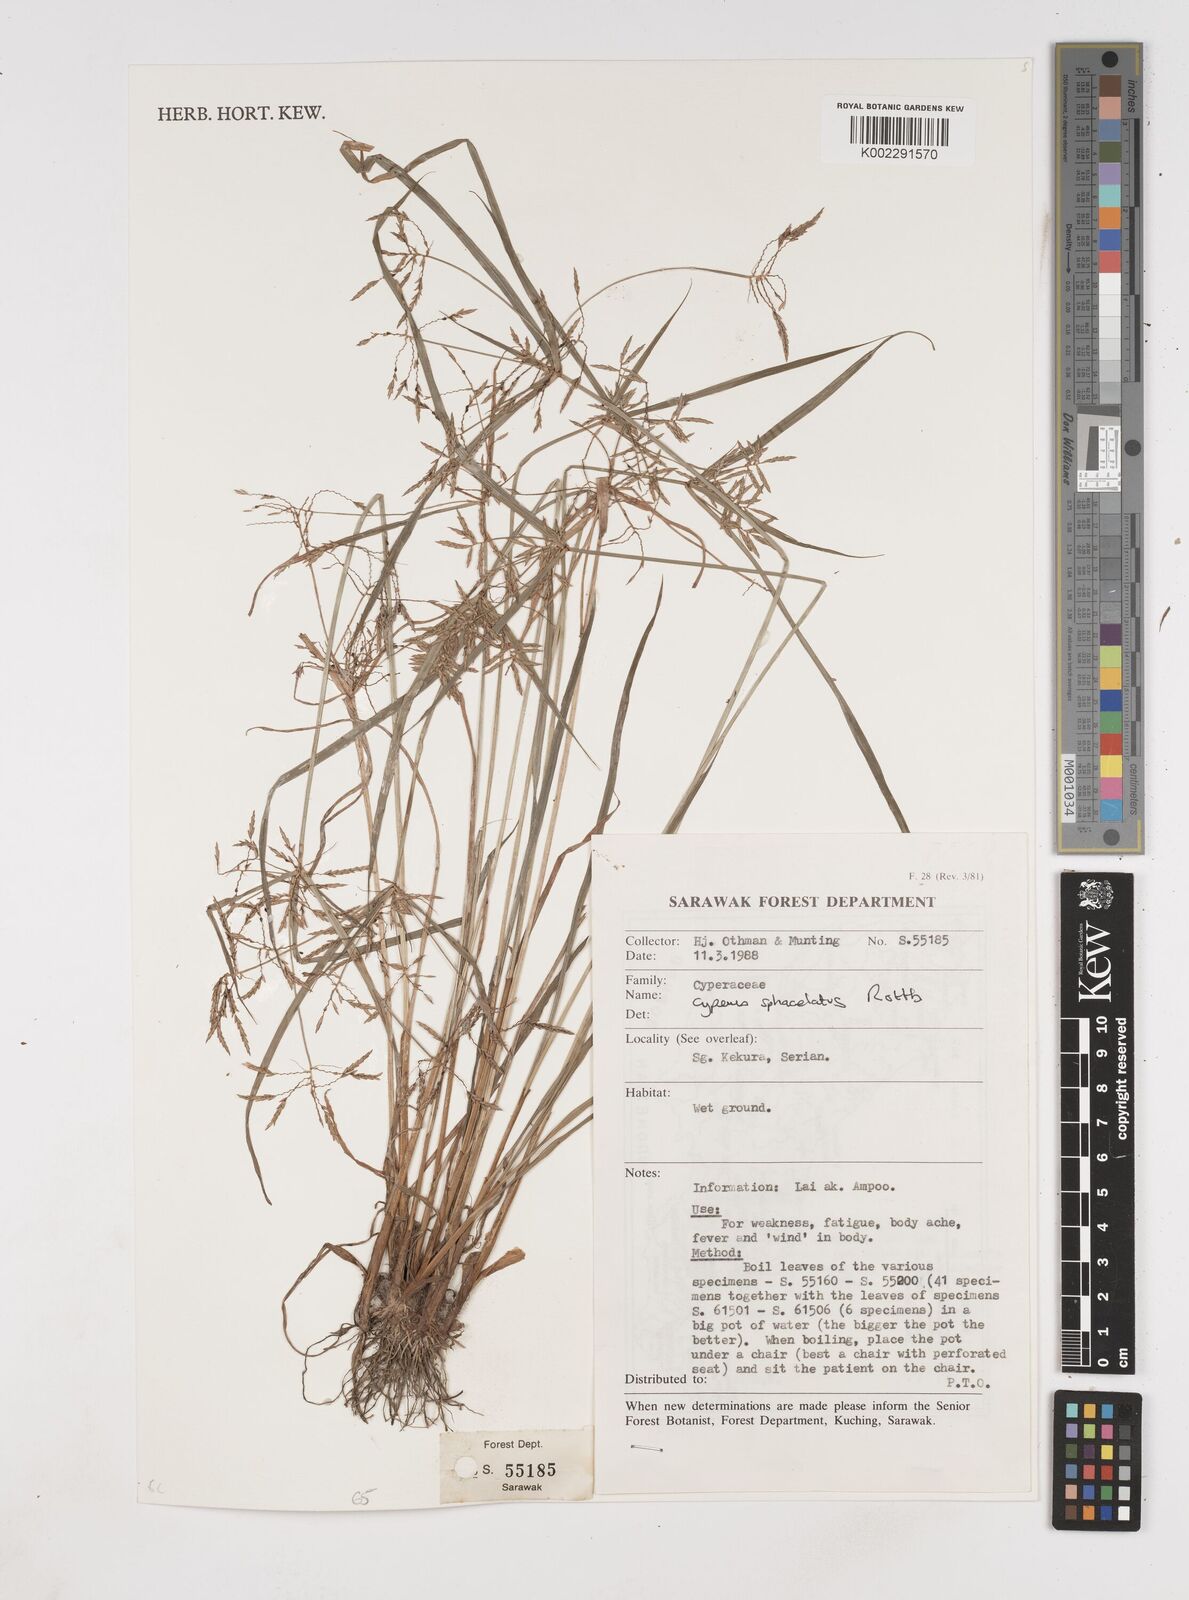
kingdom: Plantae
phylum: Tracheophyta
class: Liliopsida
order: Poales
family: Cyperaceae
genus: Cyperus
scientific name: Cyperus sphacelatus
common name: Roadside flatsedge
